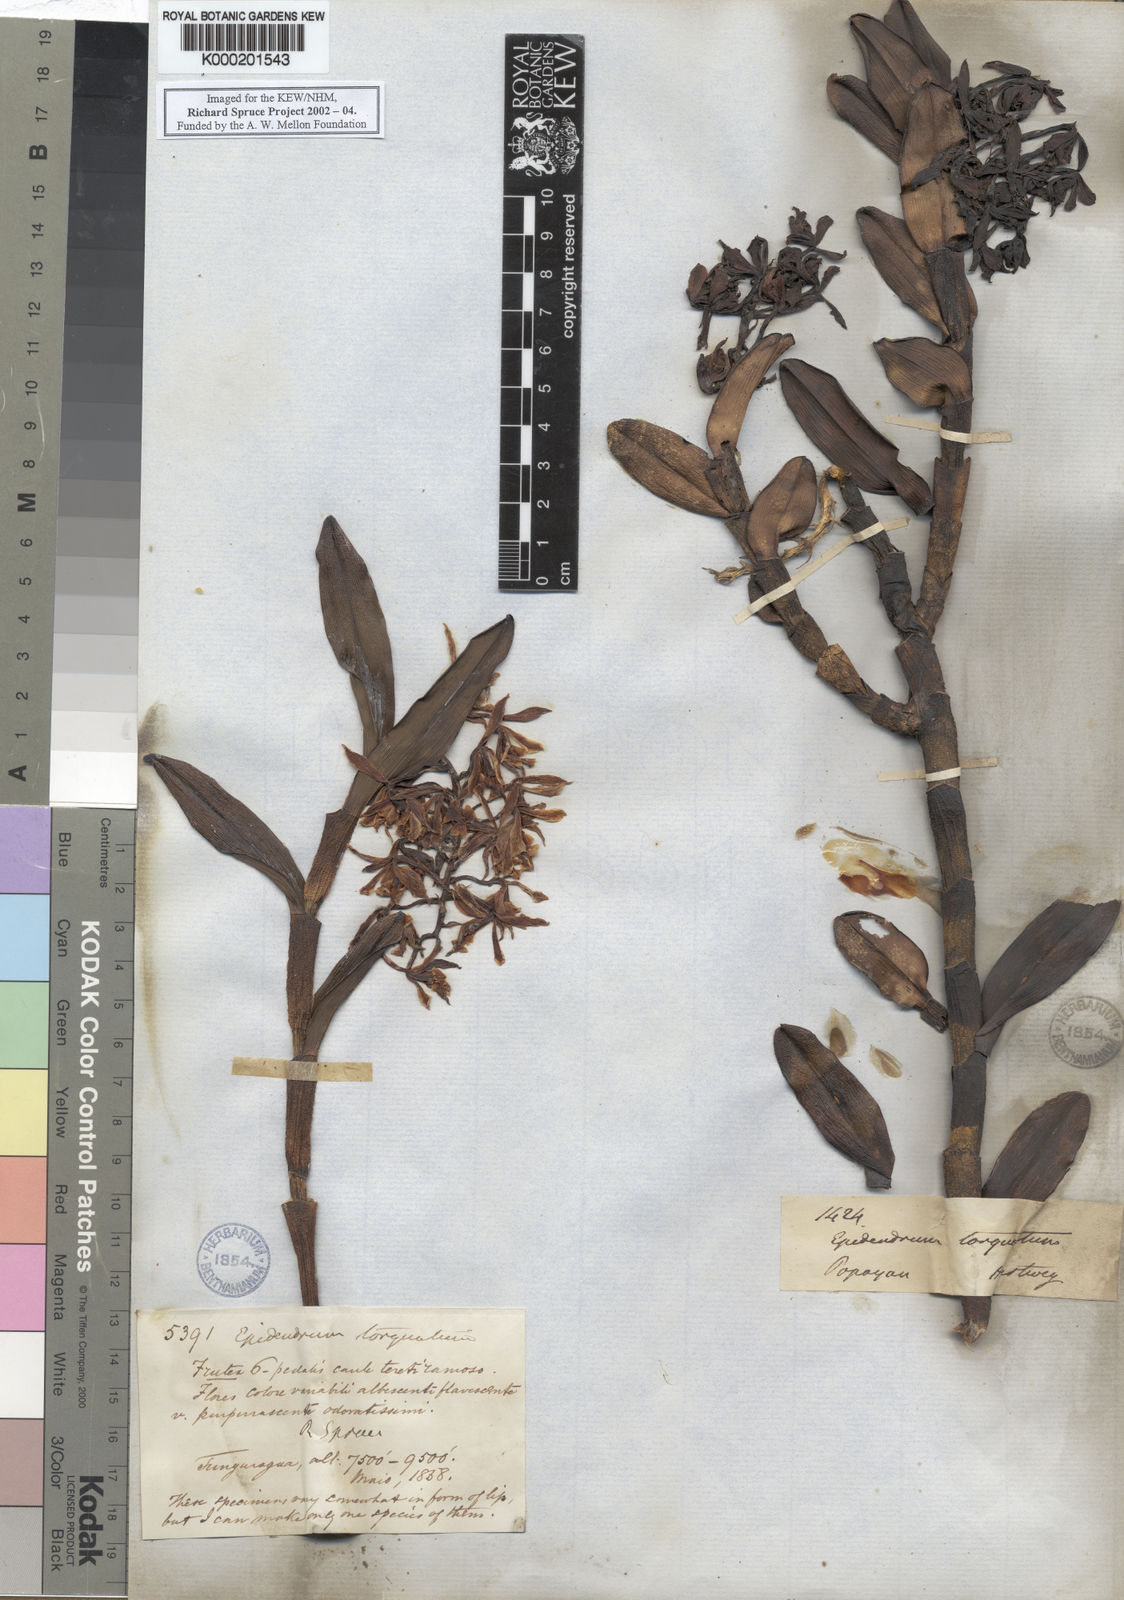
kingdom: Plantae
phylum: Tracheophyta
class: Liliopsida
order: Asparagales
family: Orchidaceae
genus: Epidendrum
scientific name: Epidendrum torquatum
